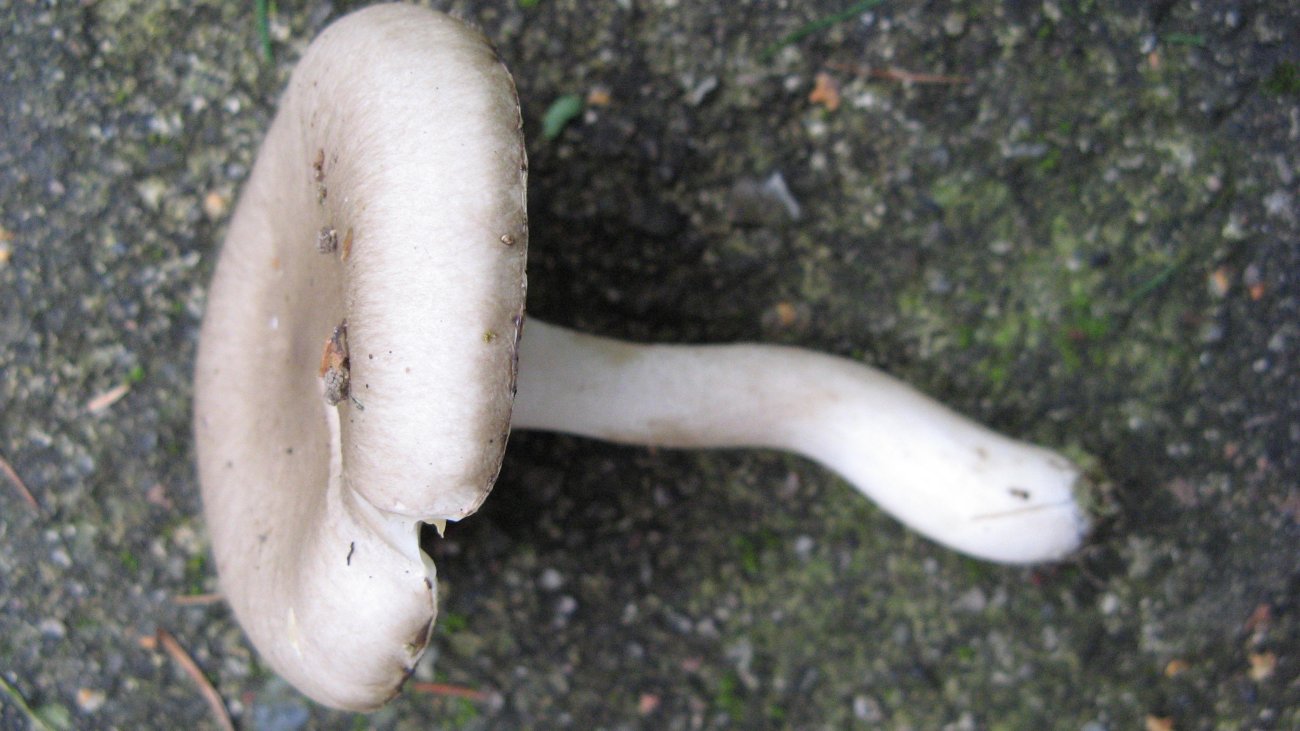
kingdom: Fungi
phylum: Basidiomycota
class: Agaricomycetes
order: Agaricales
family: Hygrophoraceae
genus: Hygrophorus
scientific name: Hygrophorus pustulatus
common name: mørkprikket sneglehat
